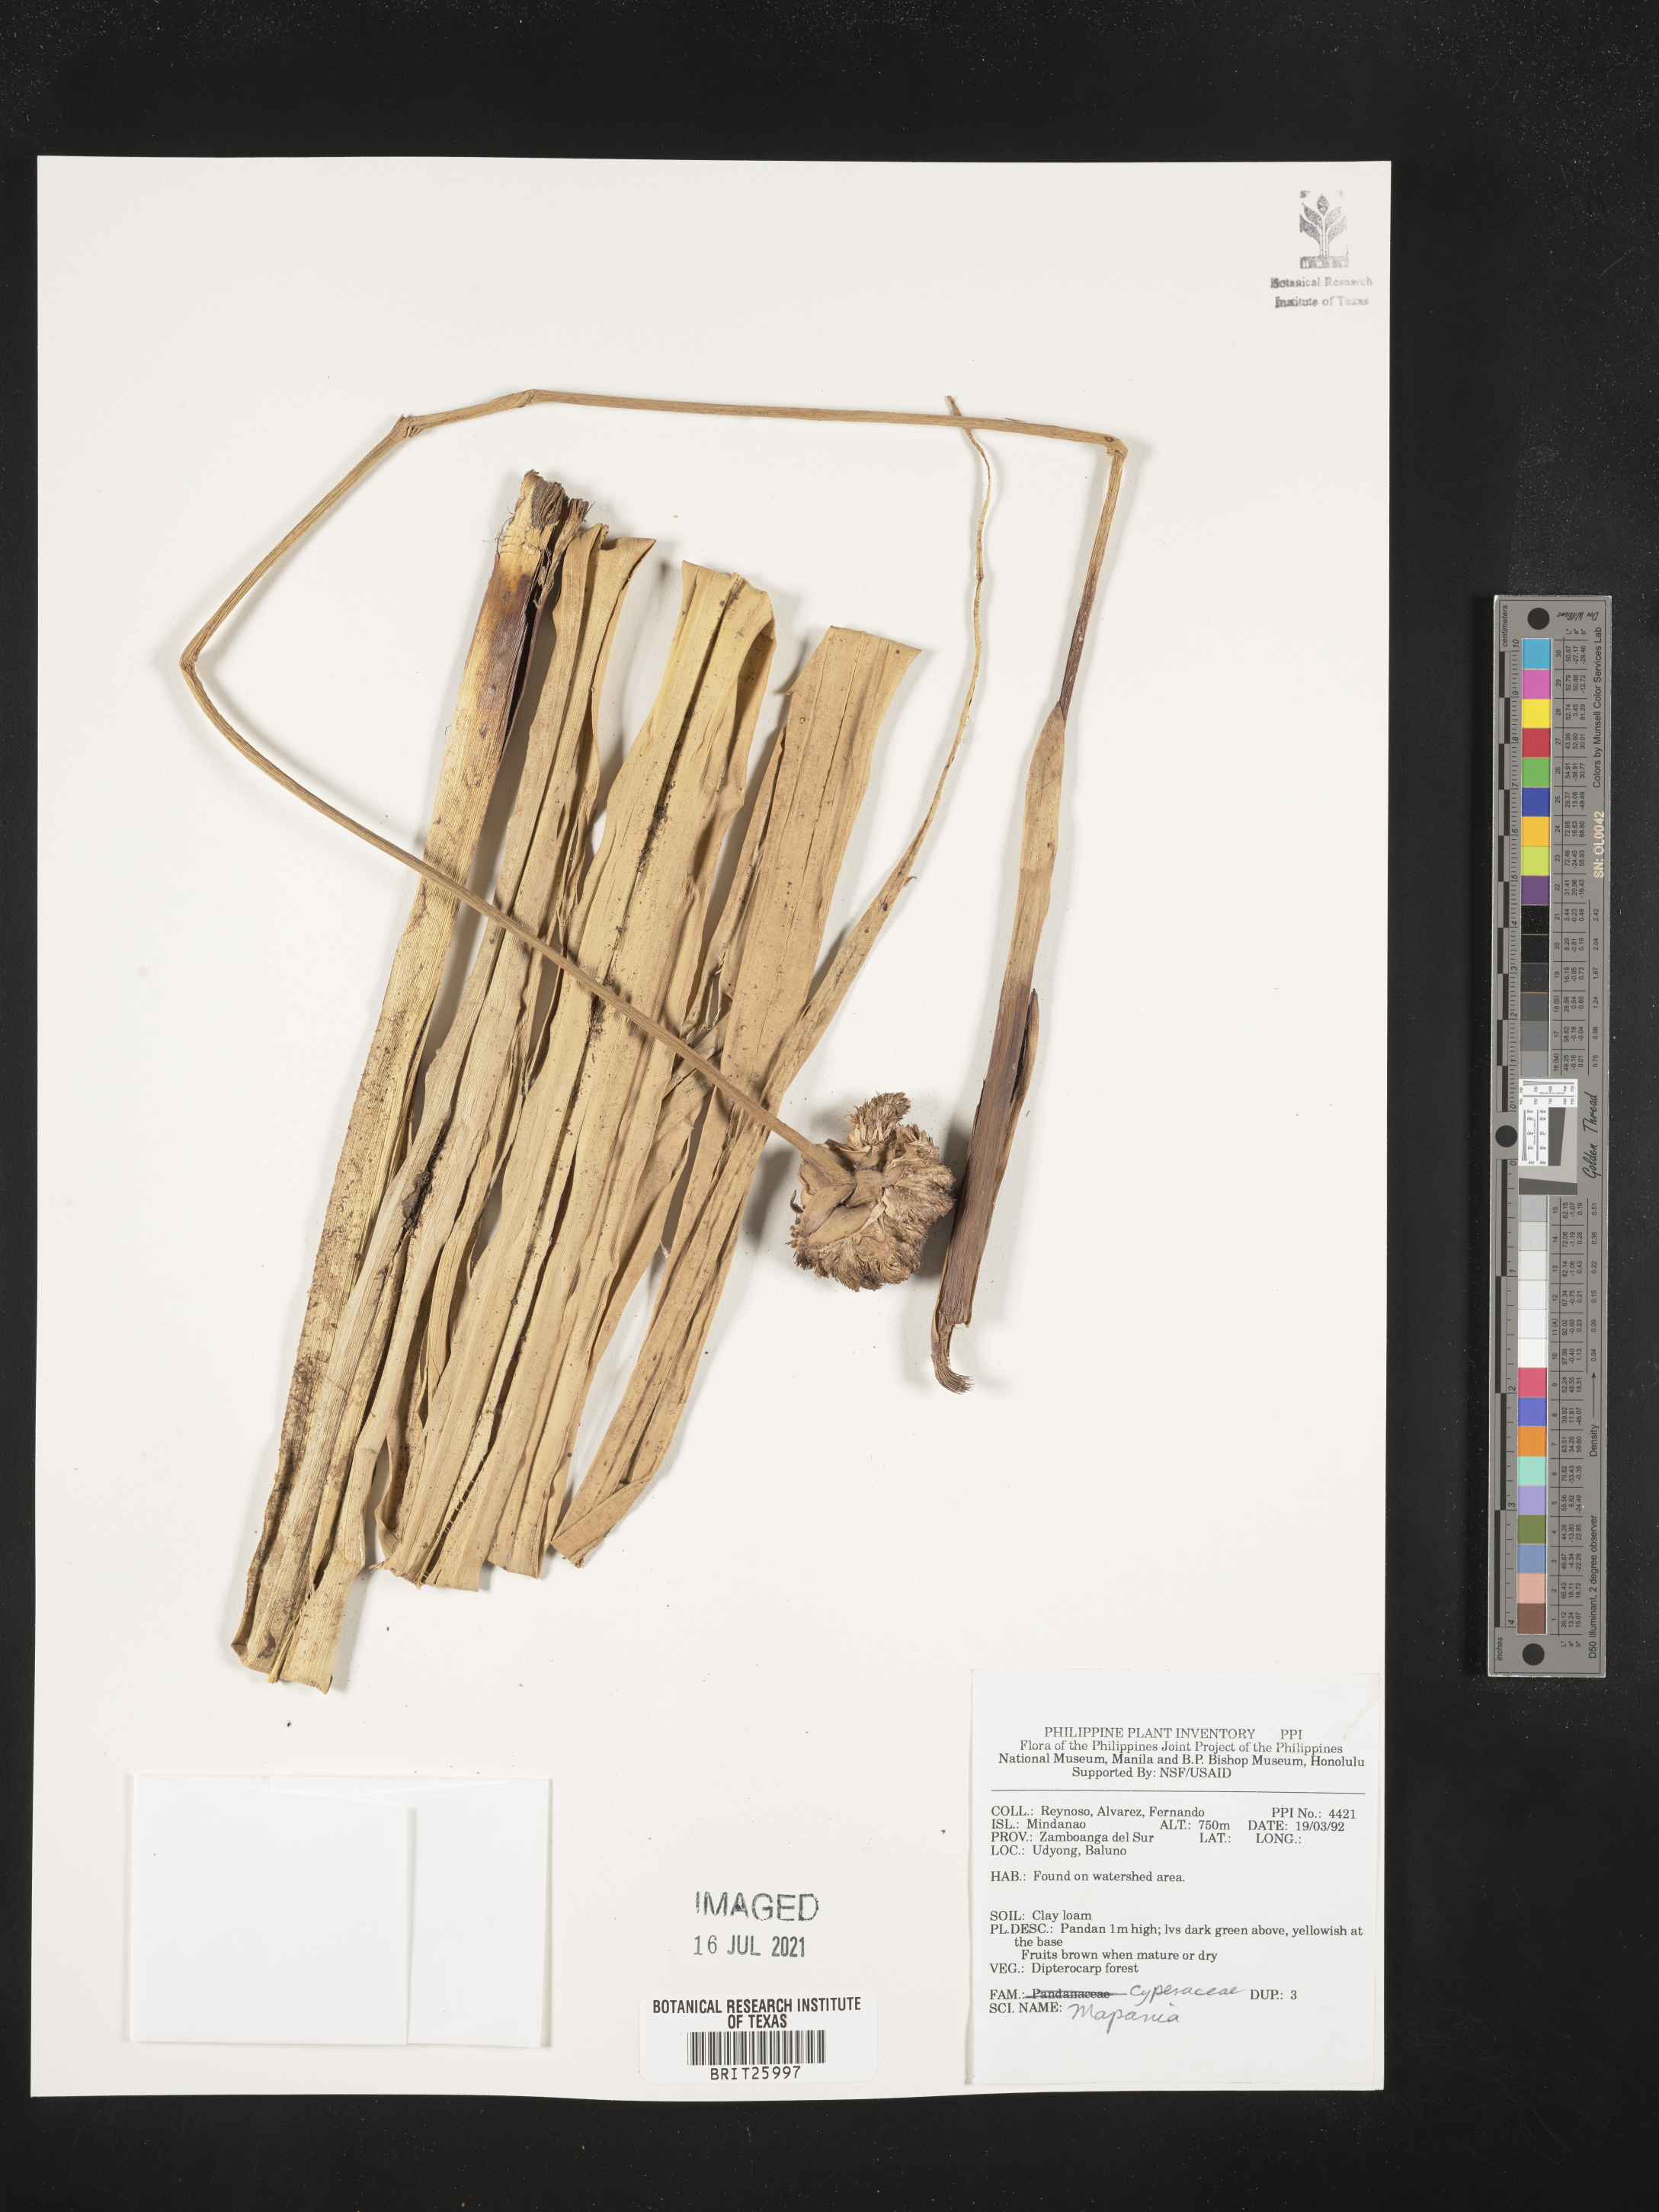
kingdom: Plantae
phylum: Tracheophyta
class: Liliopsida
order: Poales
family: Cyperaceae
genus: Mapania
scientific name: Mapania
